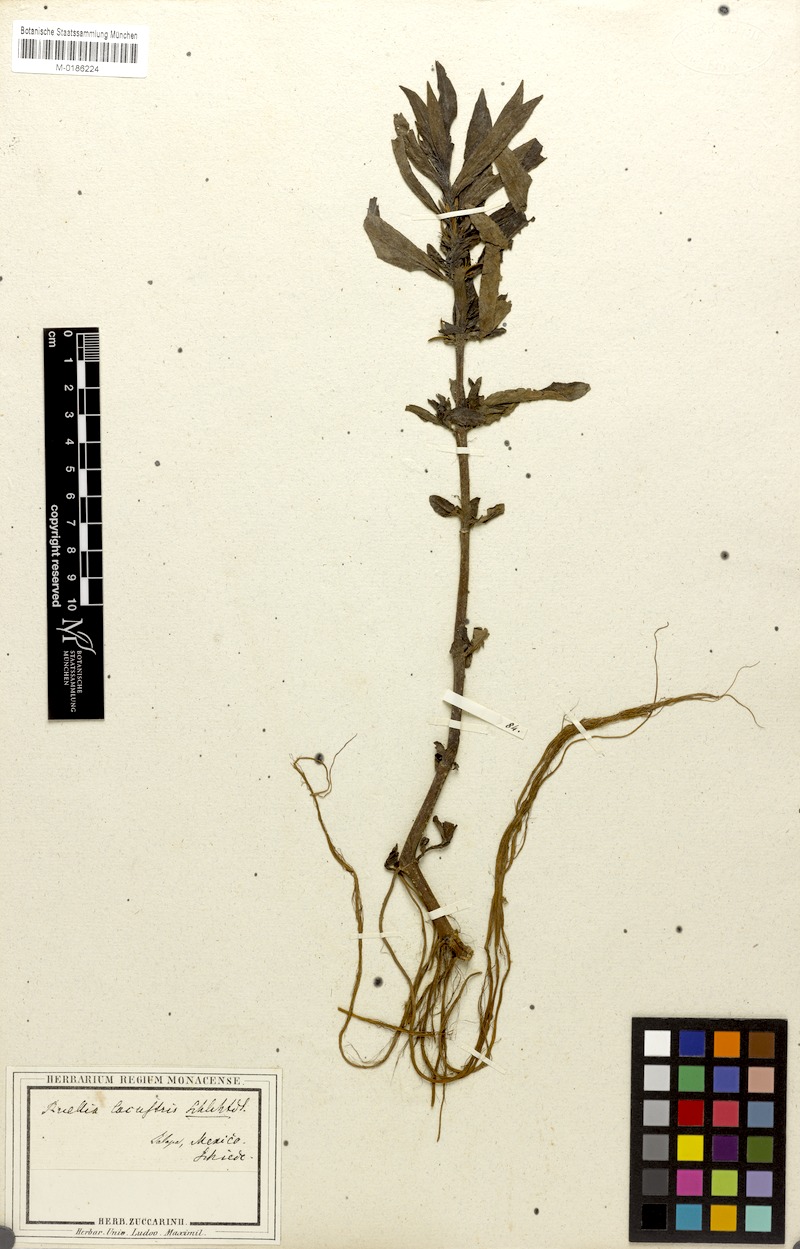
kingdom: Plantae
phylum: Tracheophyta
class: Magnoliopsida
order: Lamiales
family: Acanthaceae
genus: Hygrophila
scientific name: Hygrophila costata
